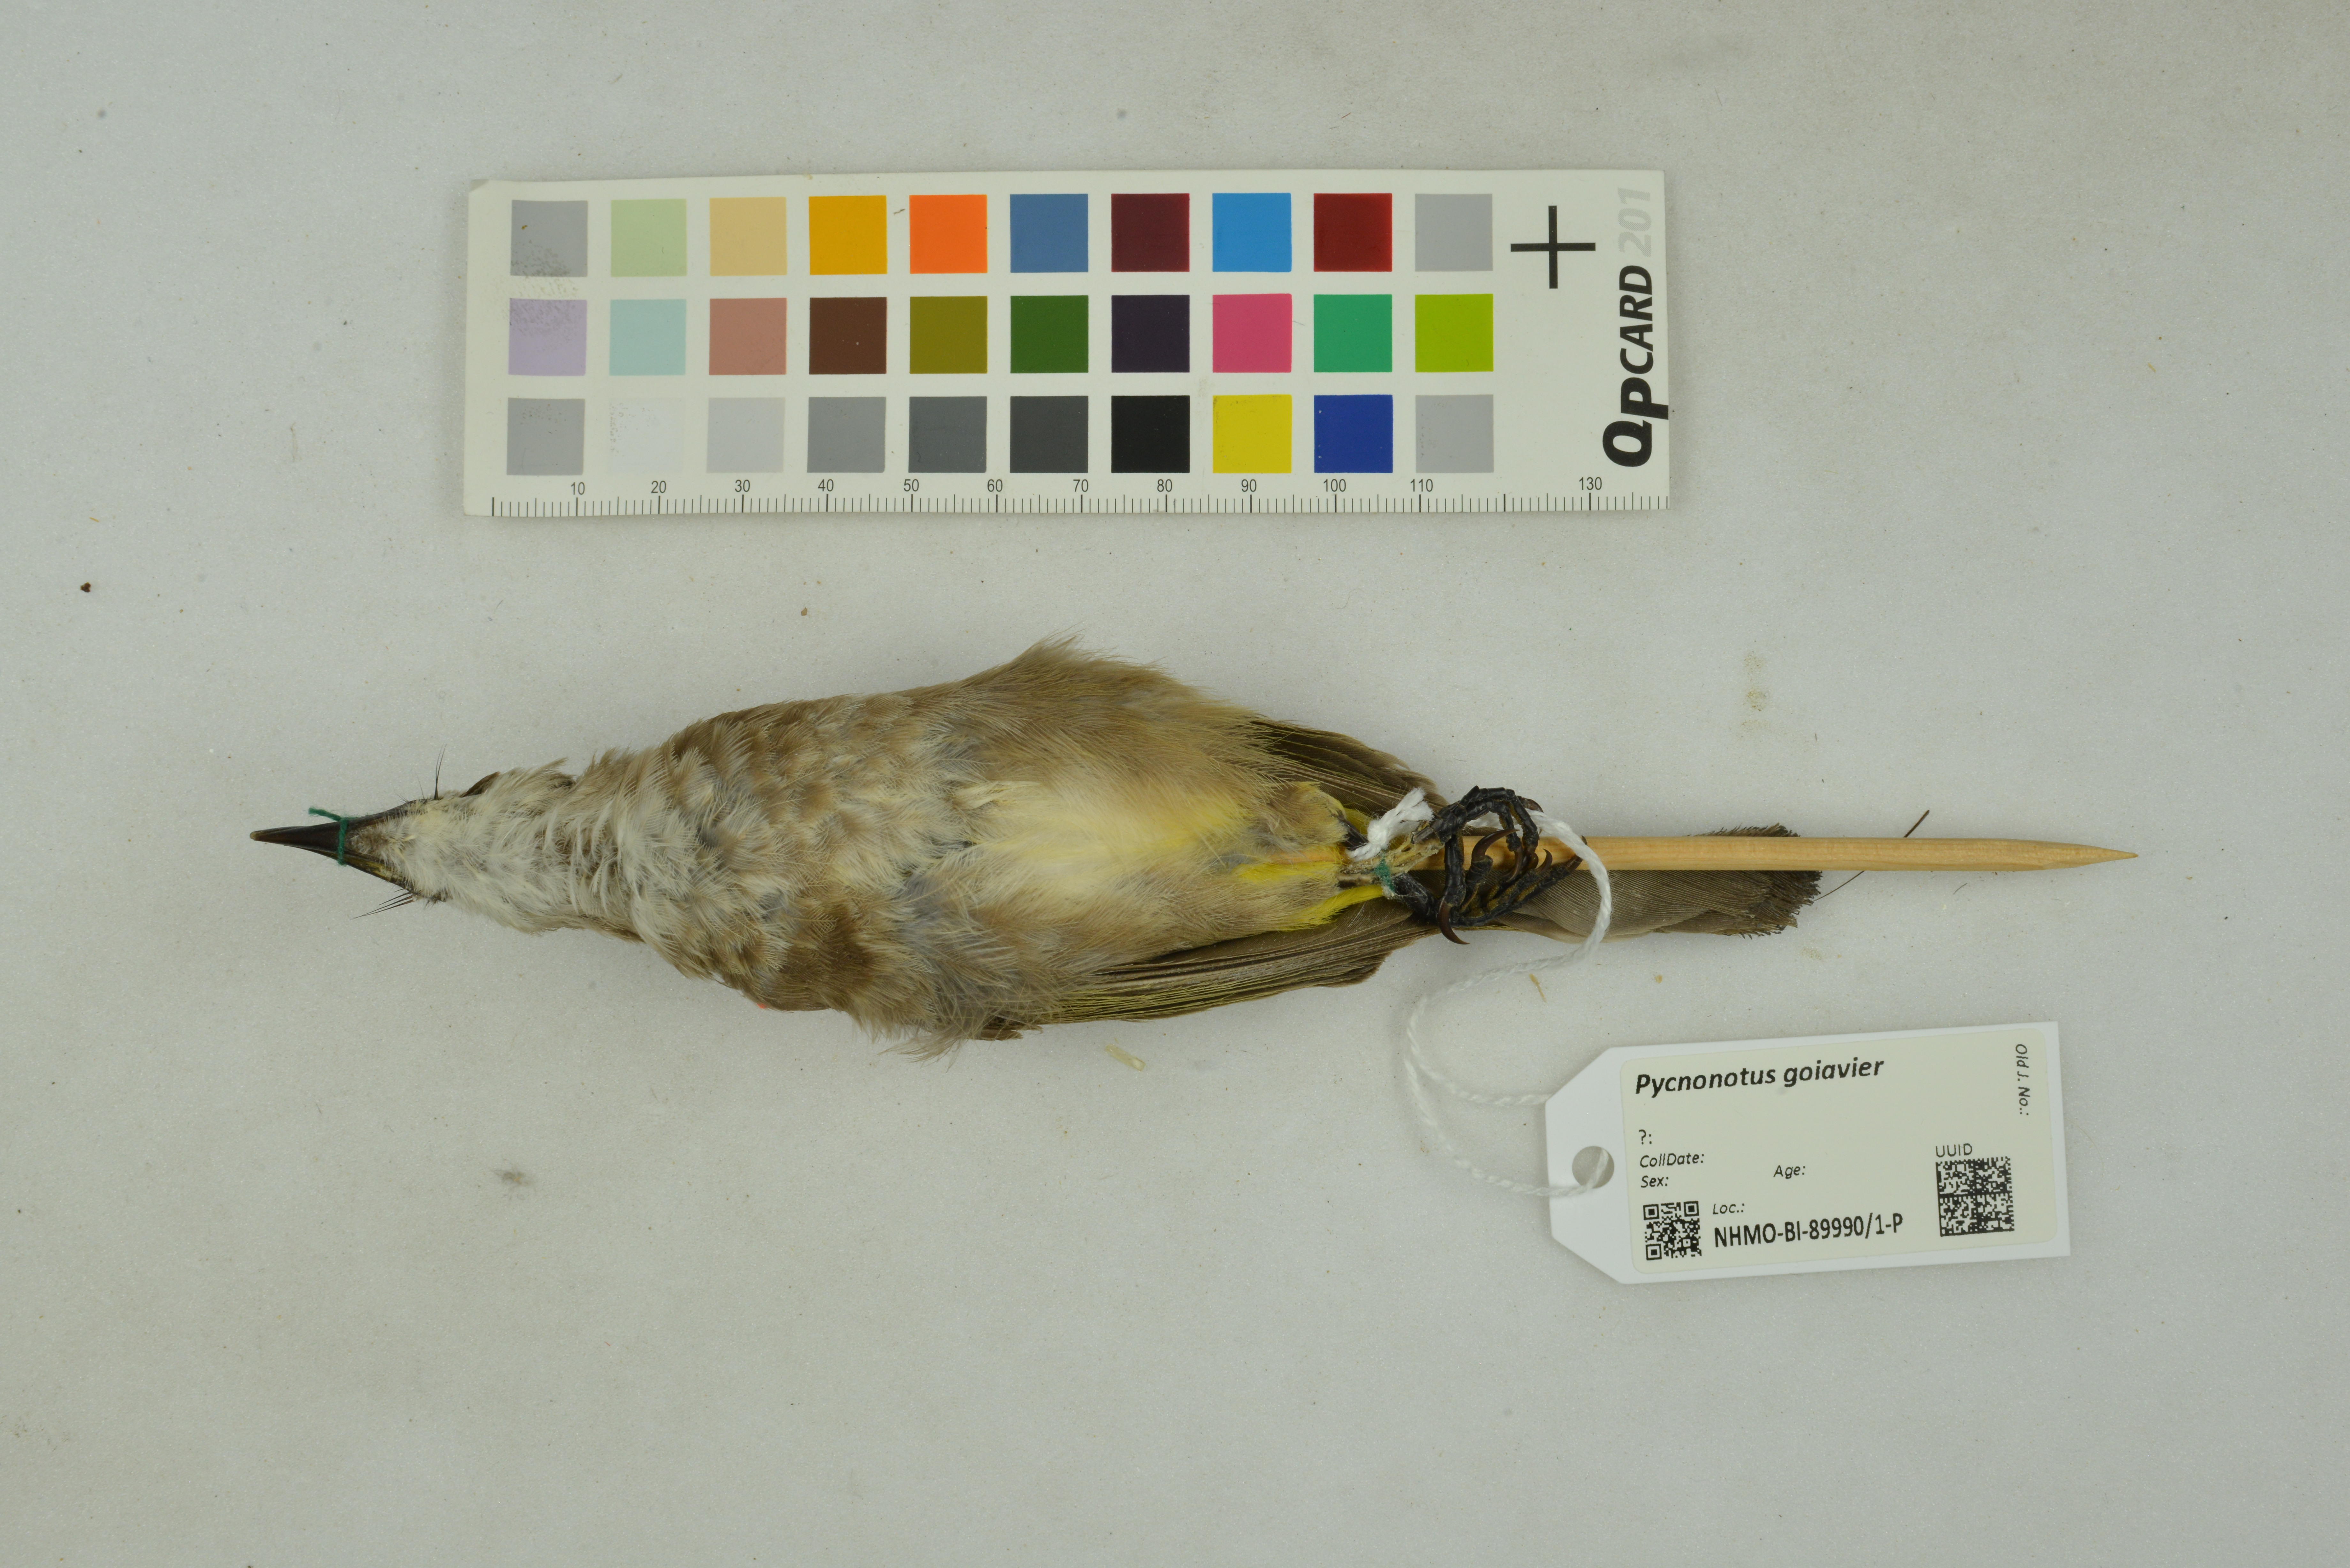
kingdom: Animalia
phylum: Chordata
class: Aves
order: Passeriformes
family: Pycnonotidae
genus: Pycnonotus
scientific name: Pycnonotus goiavier
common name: Yellow-vented bulbul
